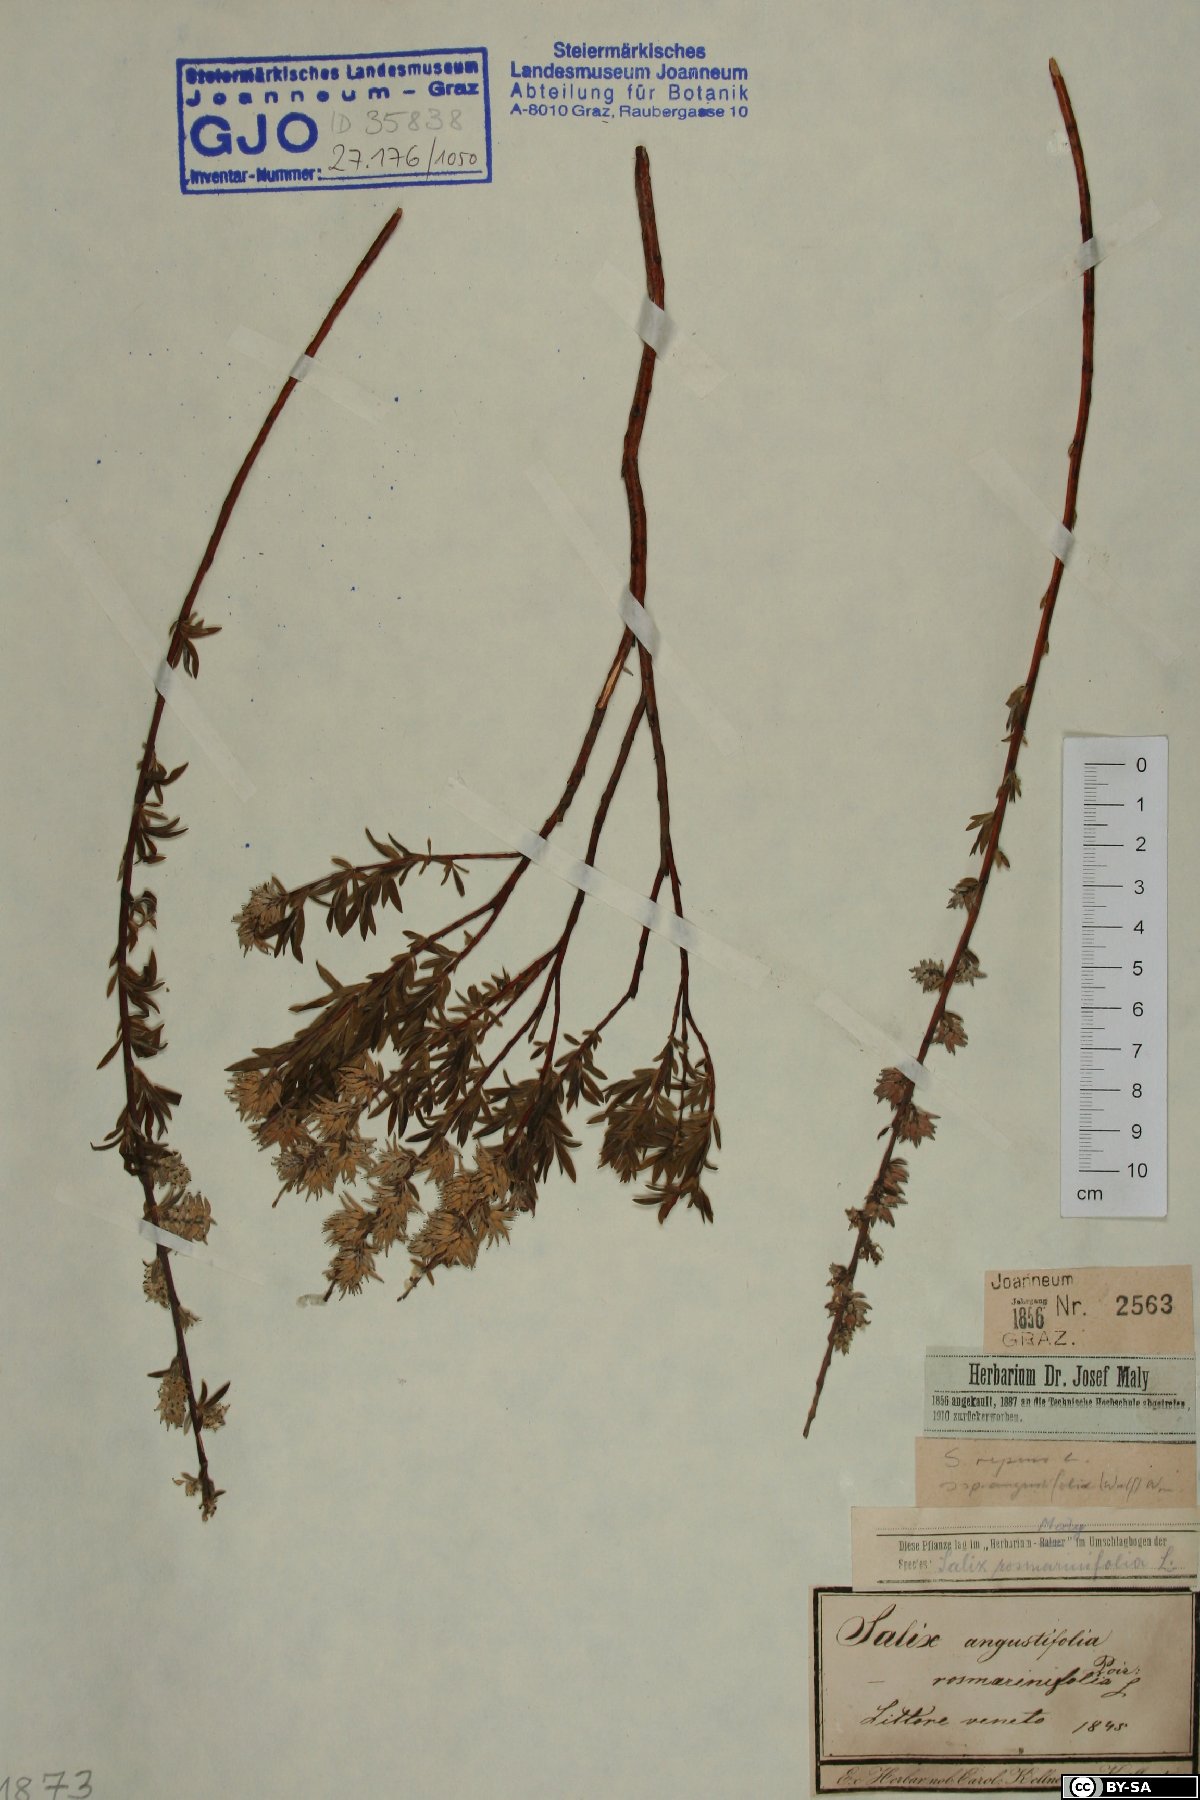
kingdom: Plantae
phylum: Tracheophyta
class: Magnoliopsida
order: Malpighiales
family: Salicaceae
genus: Salix
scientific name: Salix rosmarinifolia
